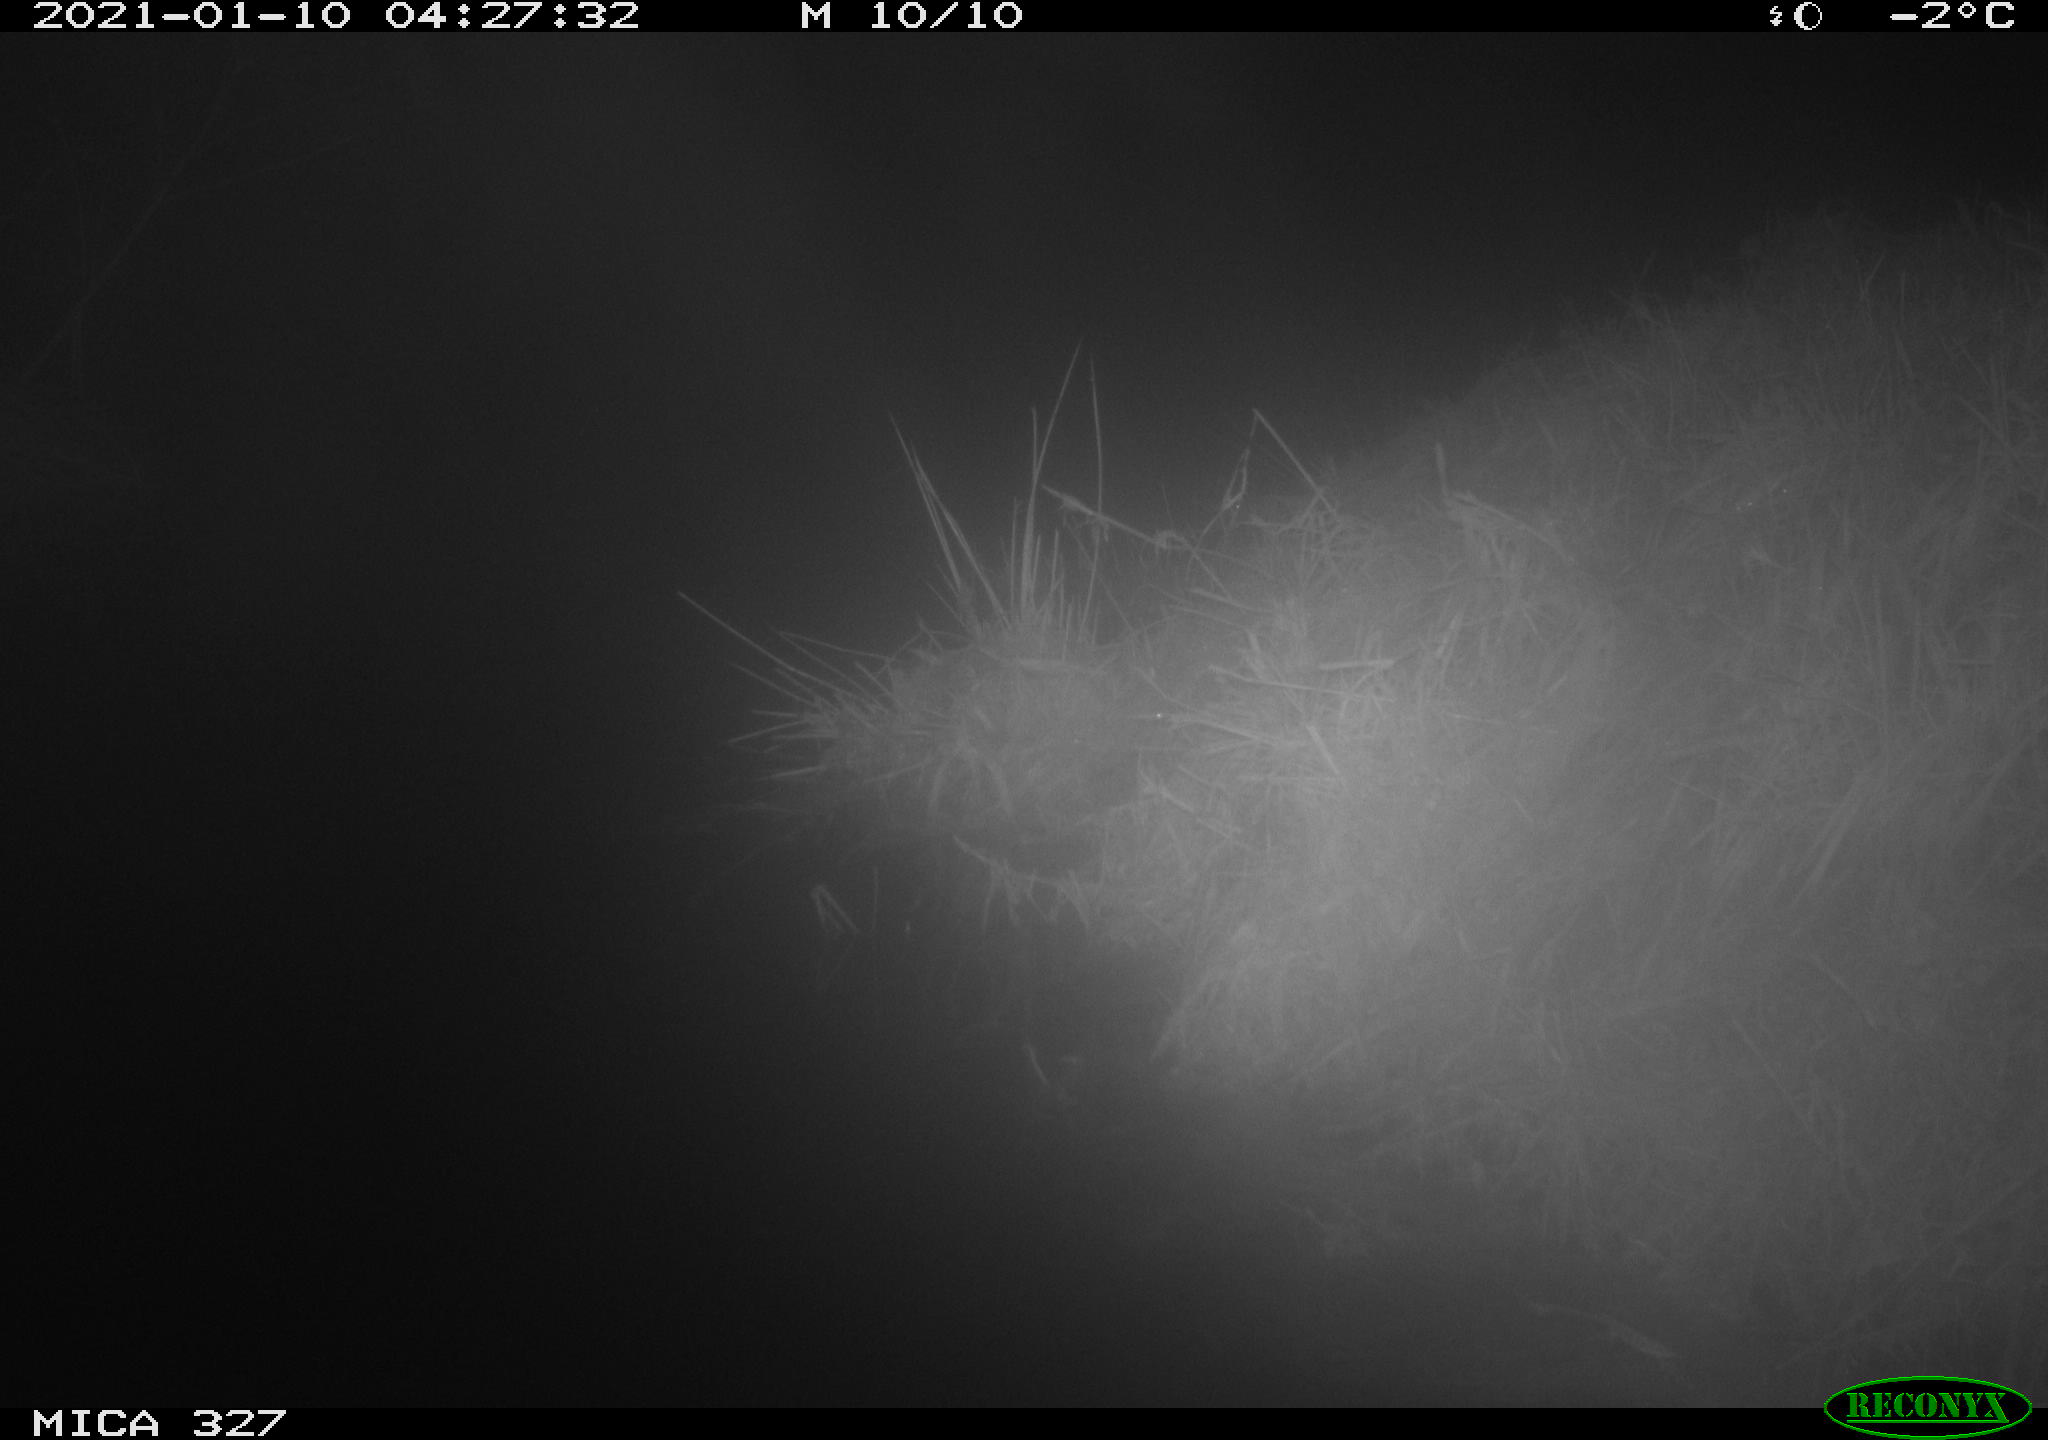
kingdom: Animalia
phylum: Chordata
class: Mammalia
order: Rodentia
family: Myocastoridae
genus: Myocastor
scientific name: Myocastor coypus
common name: Coypu
